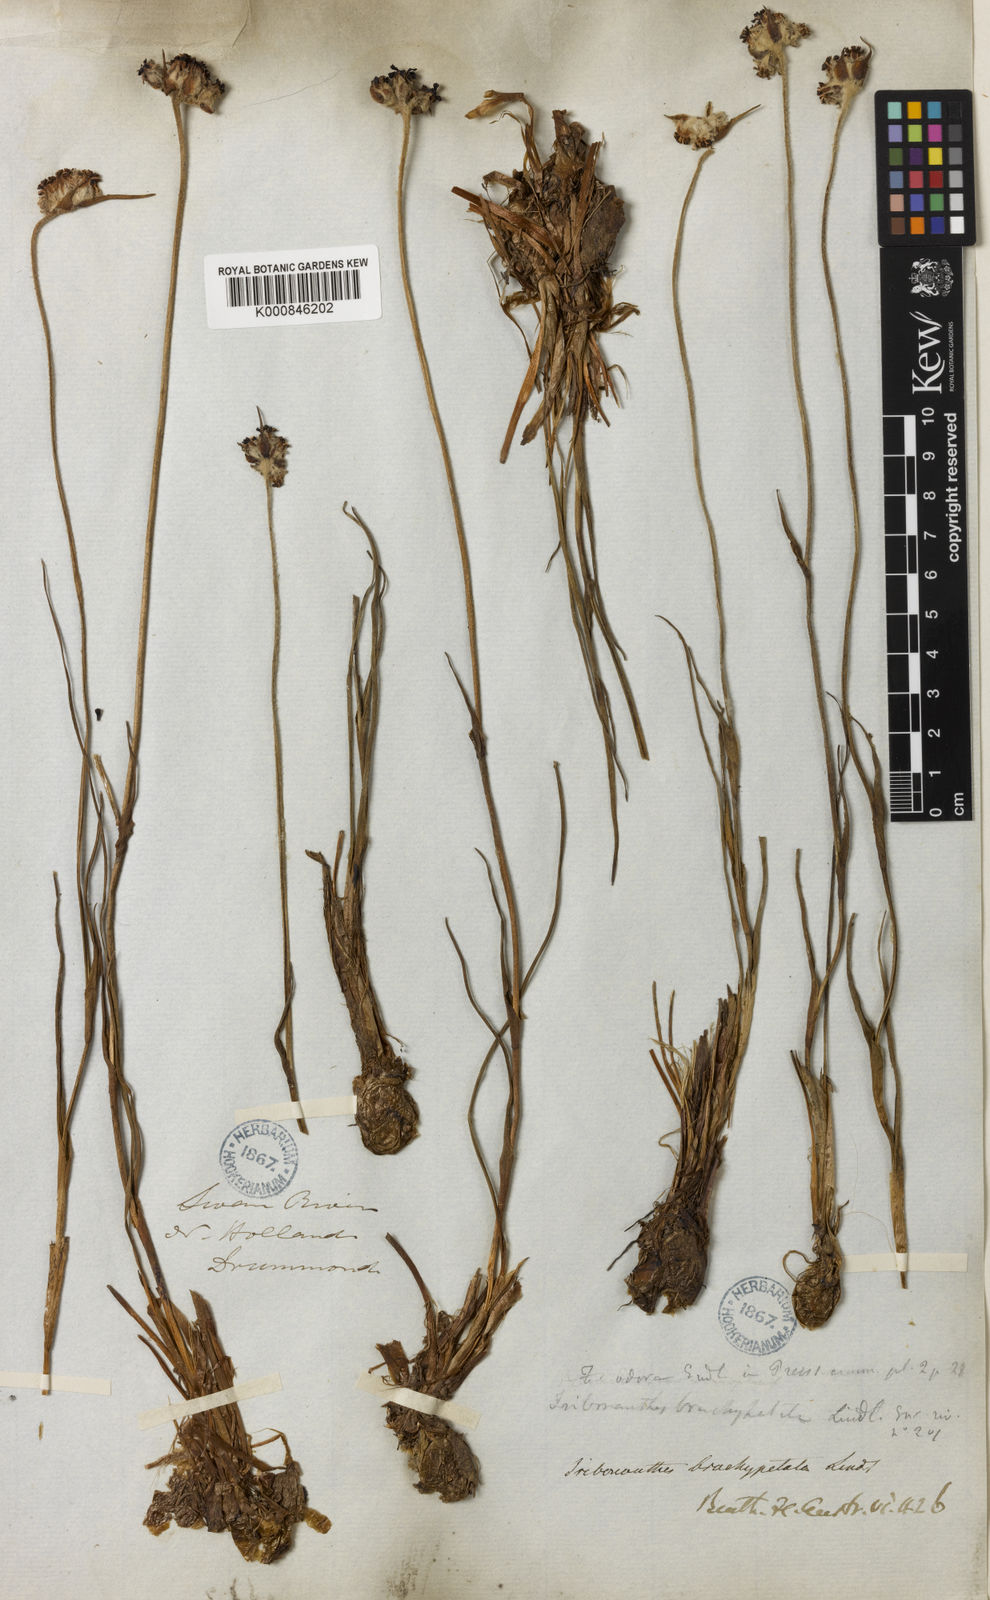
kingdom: Plantae
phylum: Tracheophyta
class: Liliopsida
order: Commelinales
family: Haemodoraceae
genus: Tribonanthes
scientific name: Tribonanthes brachypetala
